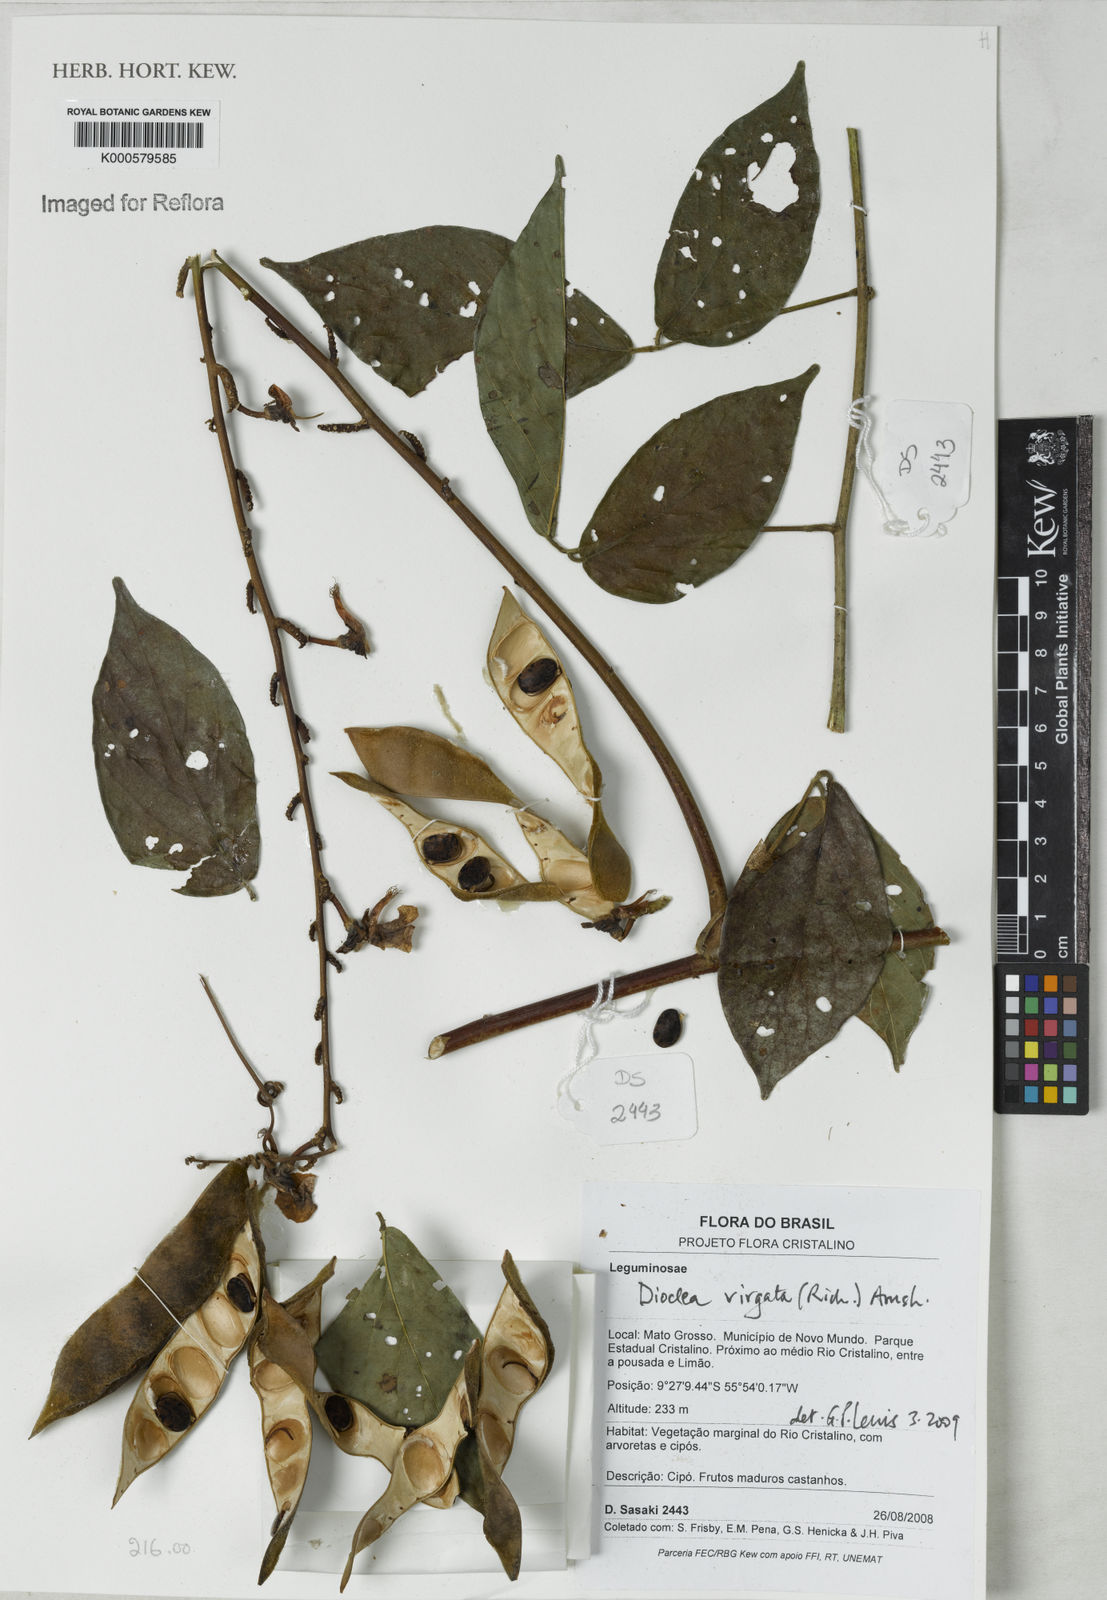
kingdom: Plantae
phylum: Tracheophyta
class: Magnoliopsida
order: Fabales
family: Fabaceae
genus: Dioclea
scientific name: Dioclea virgata
